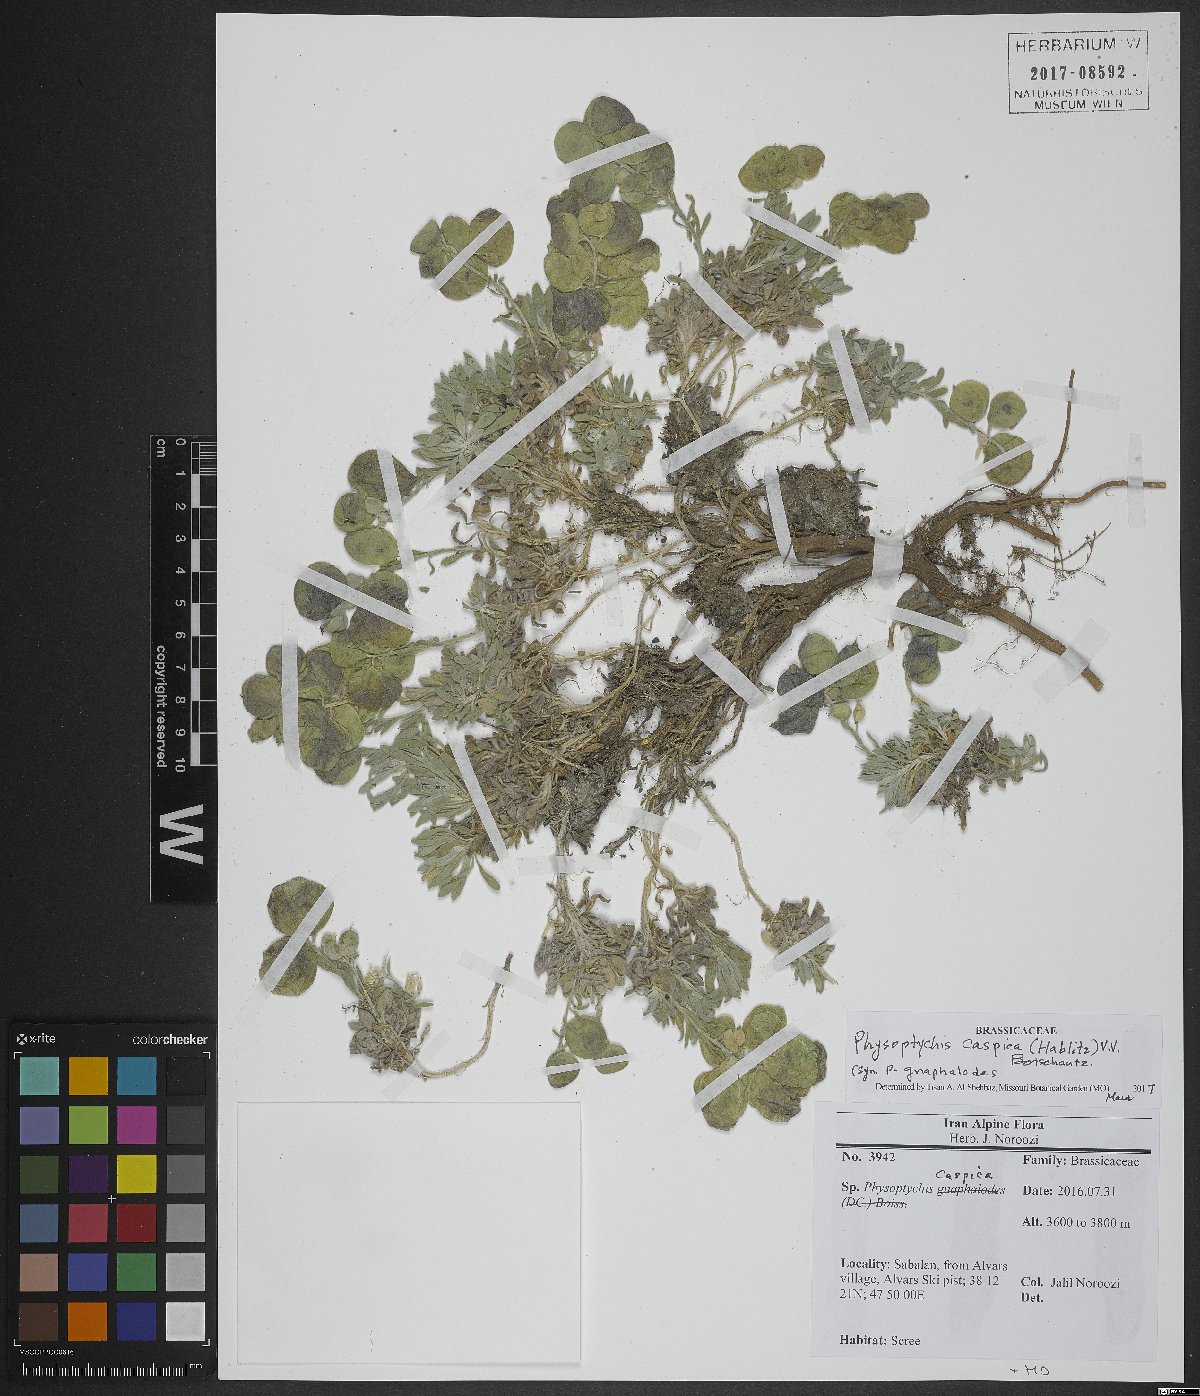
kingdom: Plantae
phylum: Tracheophyta
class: Magnoliopsida
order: Brassicales
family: Brassicaceae
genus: Physoptychis
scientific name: Physoptychis caspica
